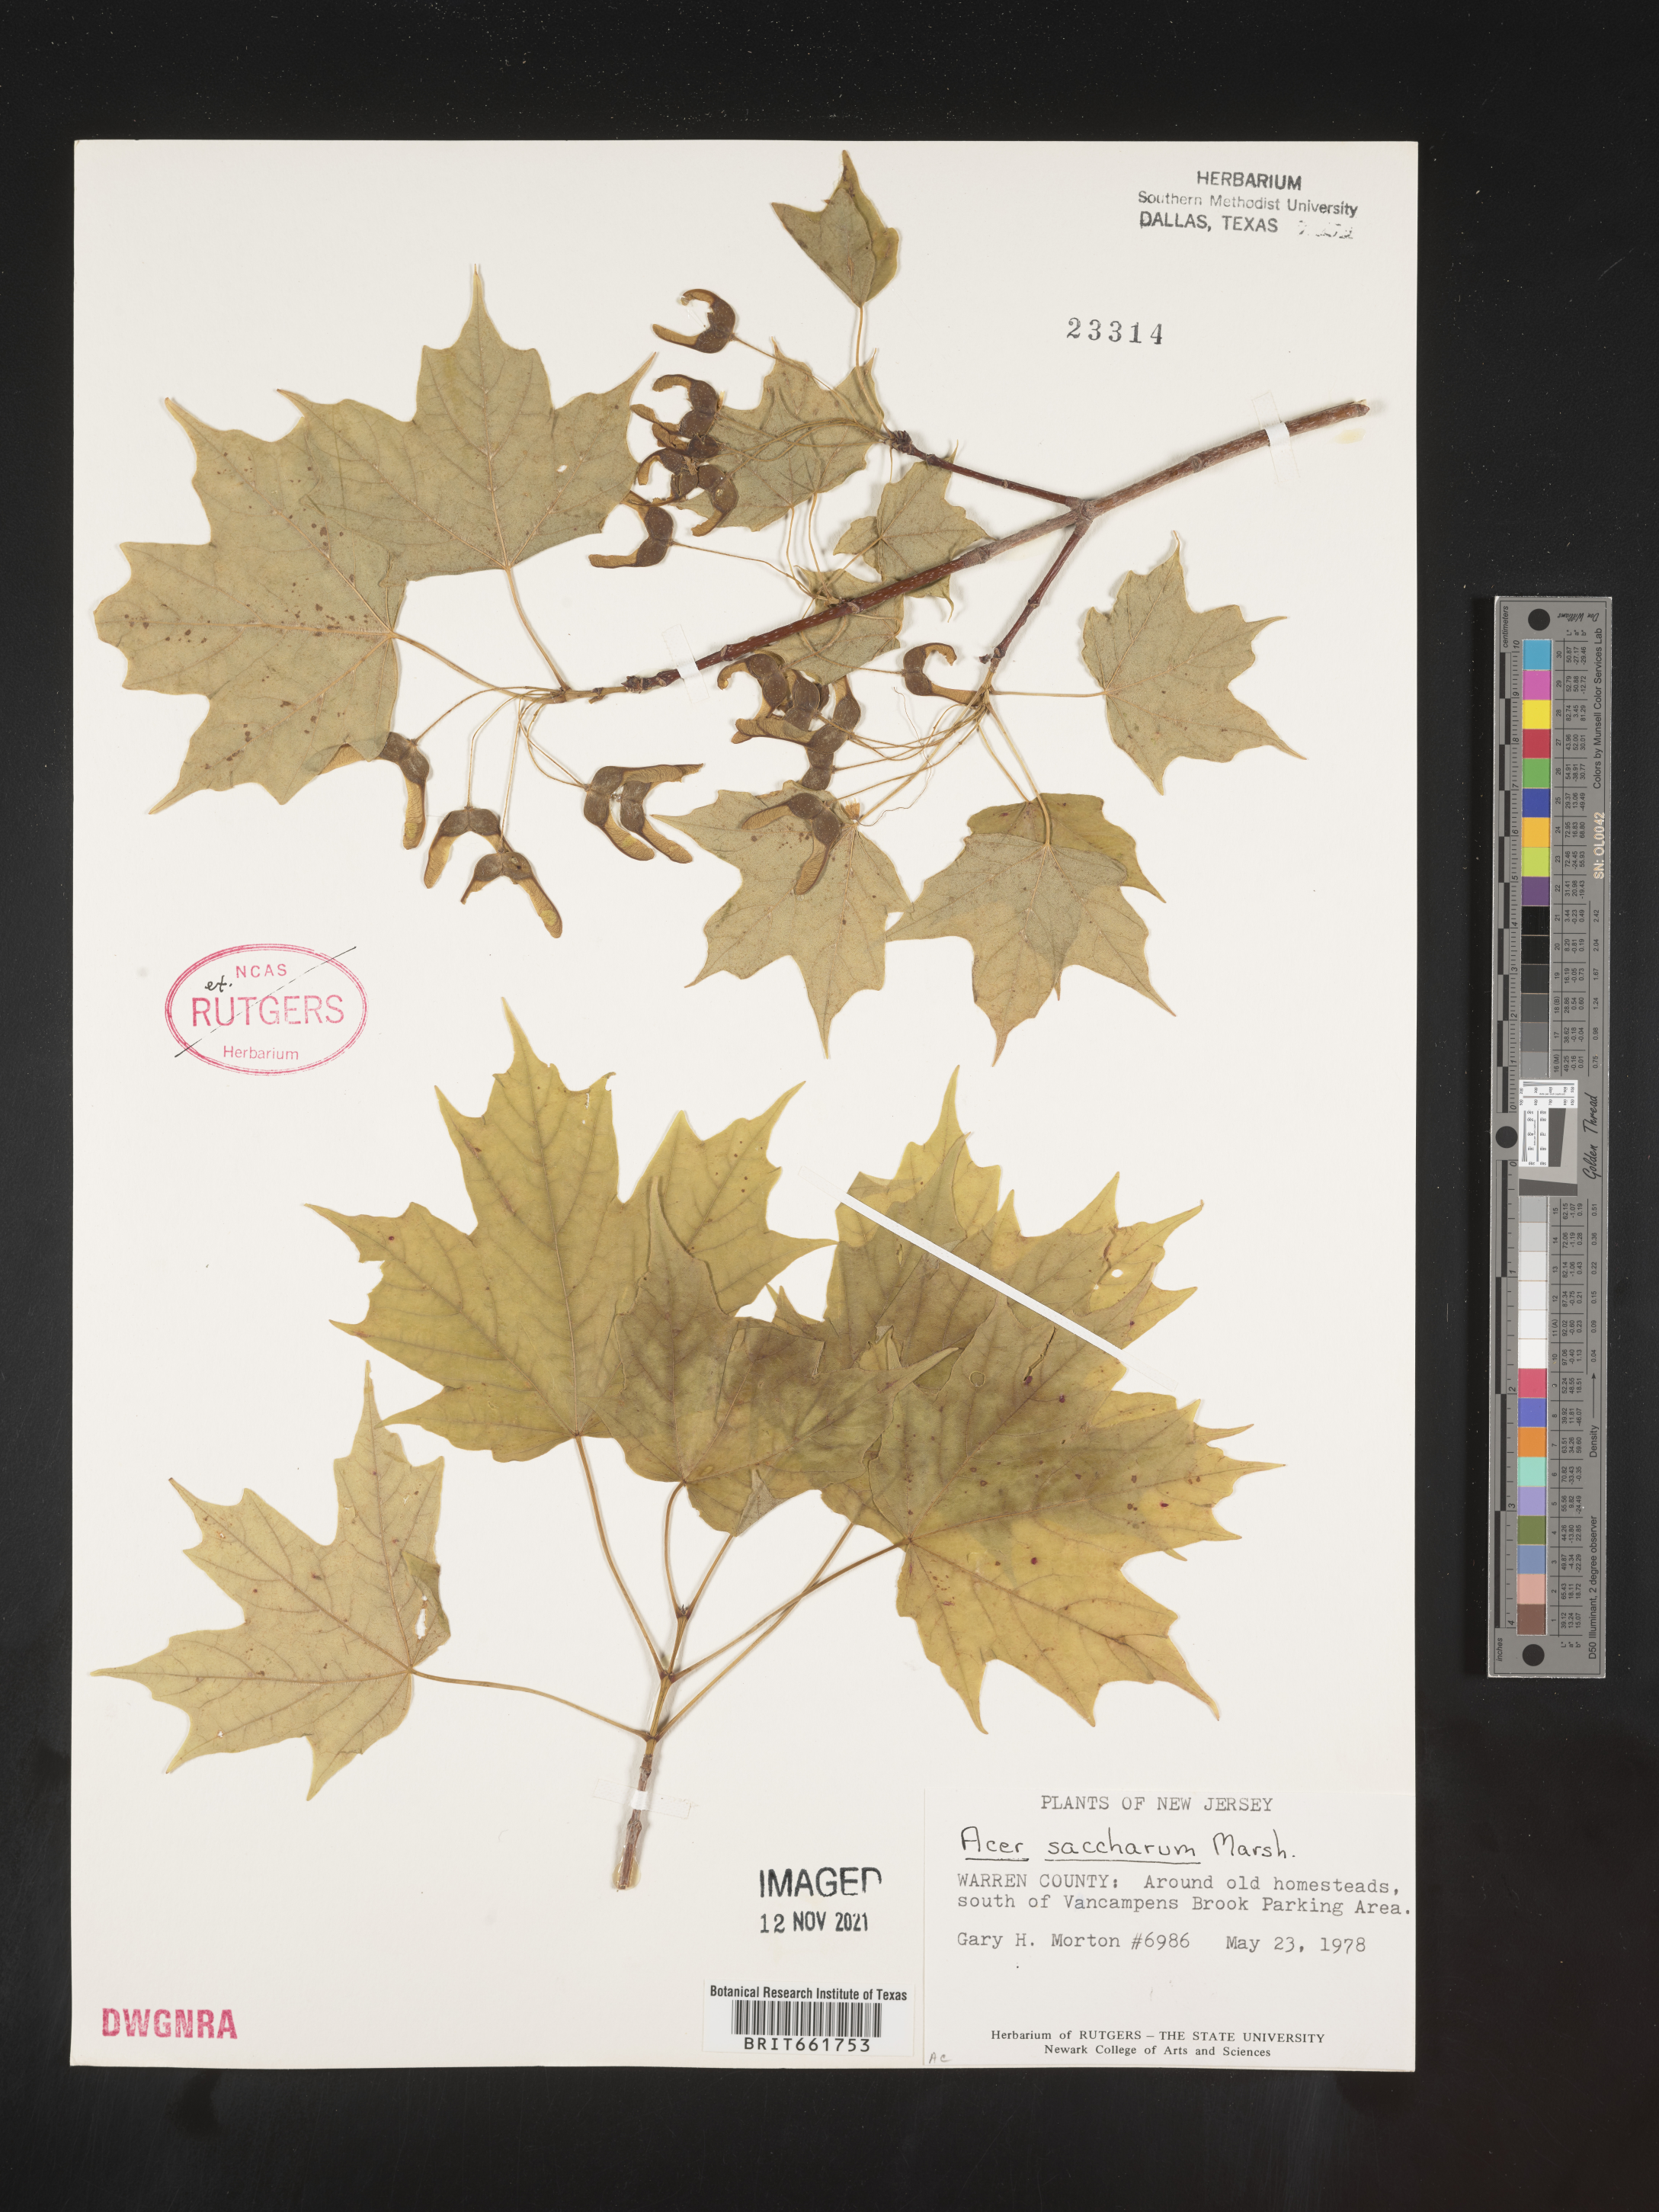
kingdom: Plantae
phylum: Tracheophyta
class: Magnoliopsida
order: Sapindales
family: Sapindaceae
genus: Acer
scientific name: Acer saccharinum
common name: Silver maple
